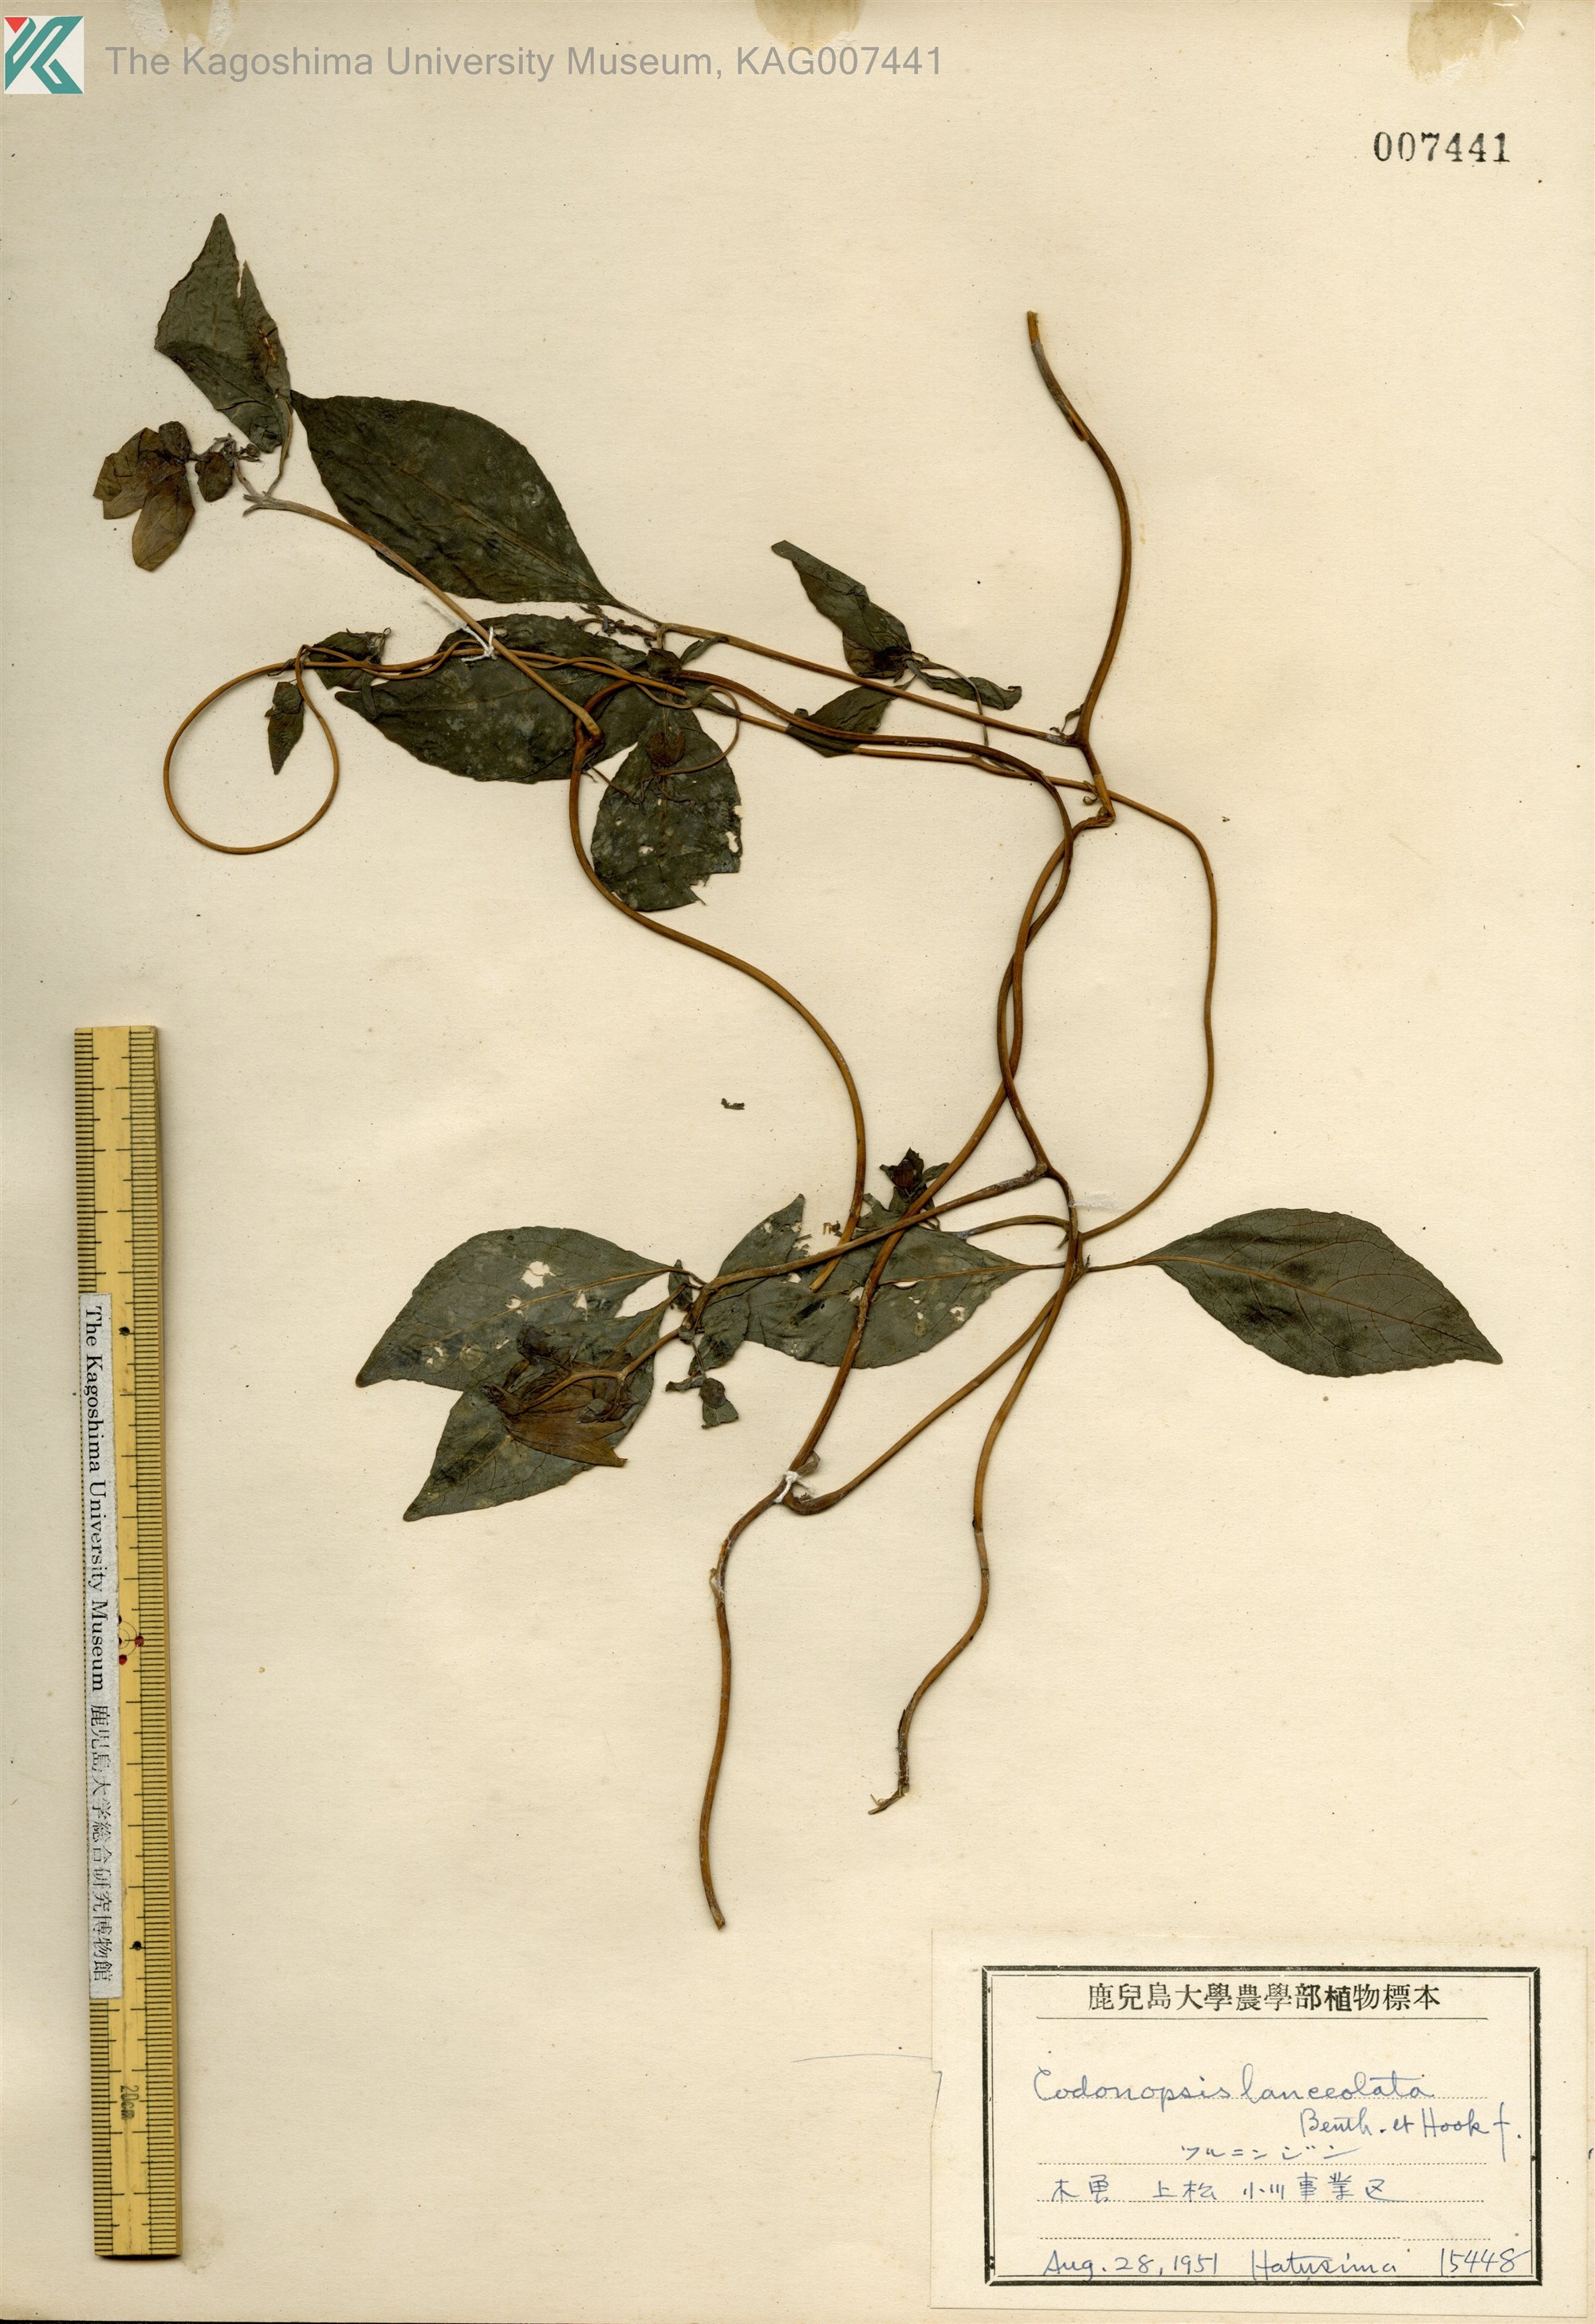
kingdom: Plantae
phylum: Tracheophyta
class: Magnoliopsida
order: Asterales
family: Campanulaceae
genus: Codonopsis
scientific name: Codonopsis lanceolata
